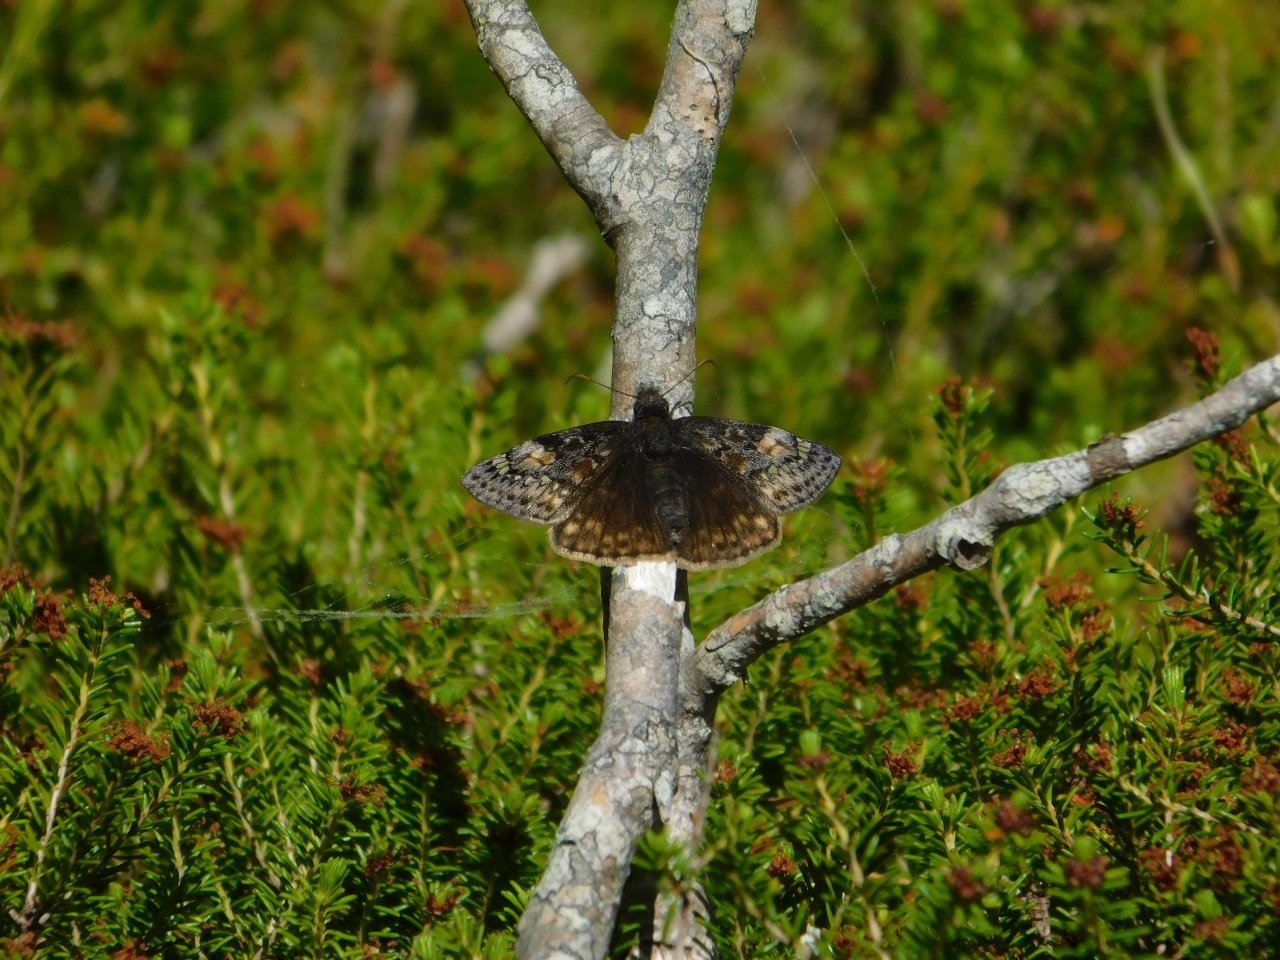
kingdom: Animalia
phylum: Arthropoda
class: Insecta
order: Lepidoptera
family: Hesperiidae
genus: Gesta
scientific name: Gesta
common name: Juvenal's Duskywing
